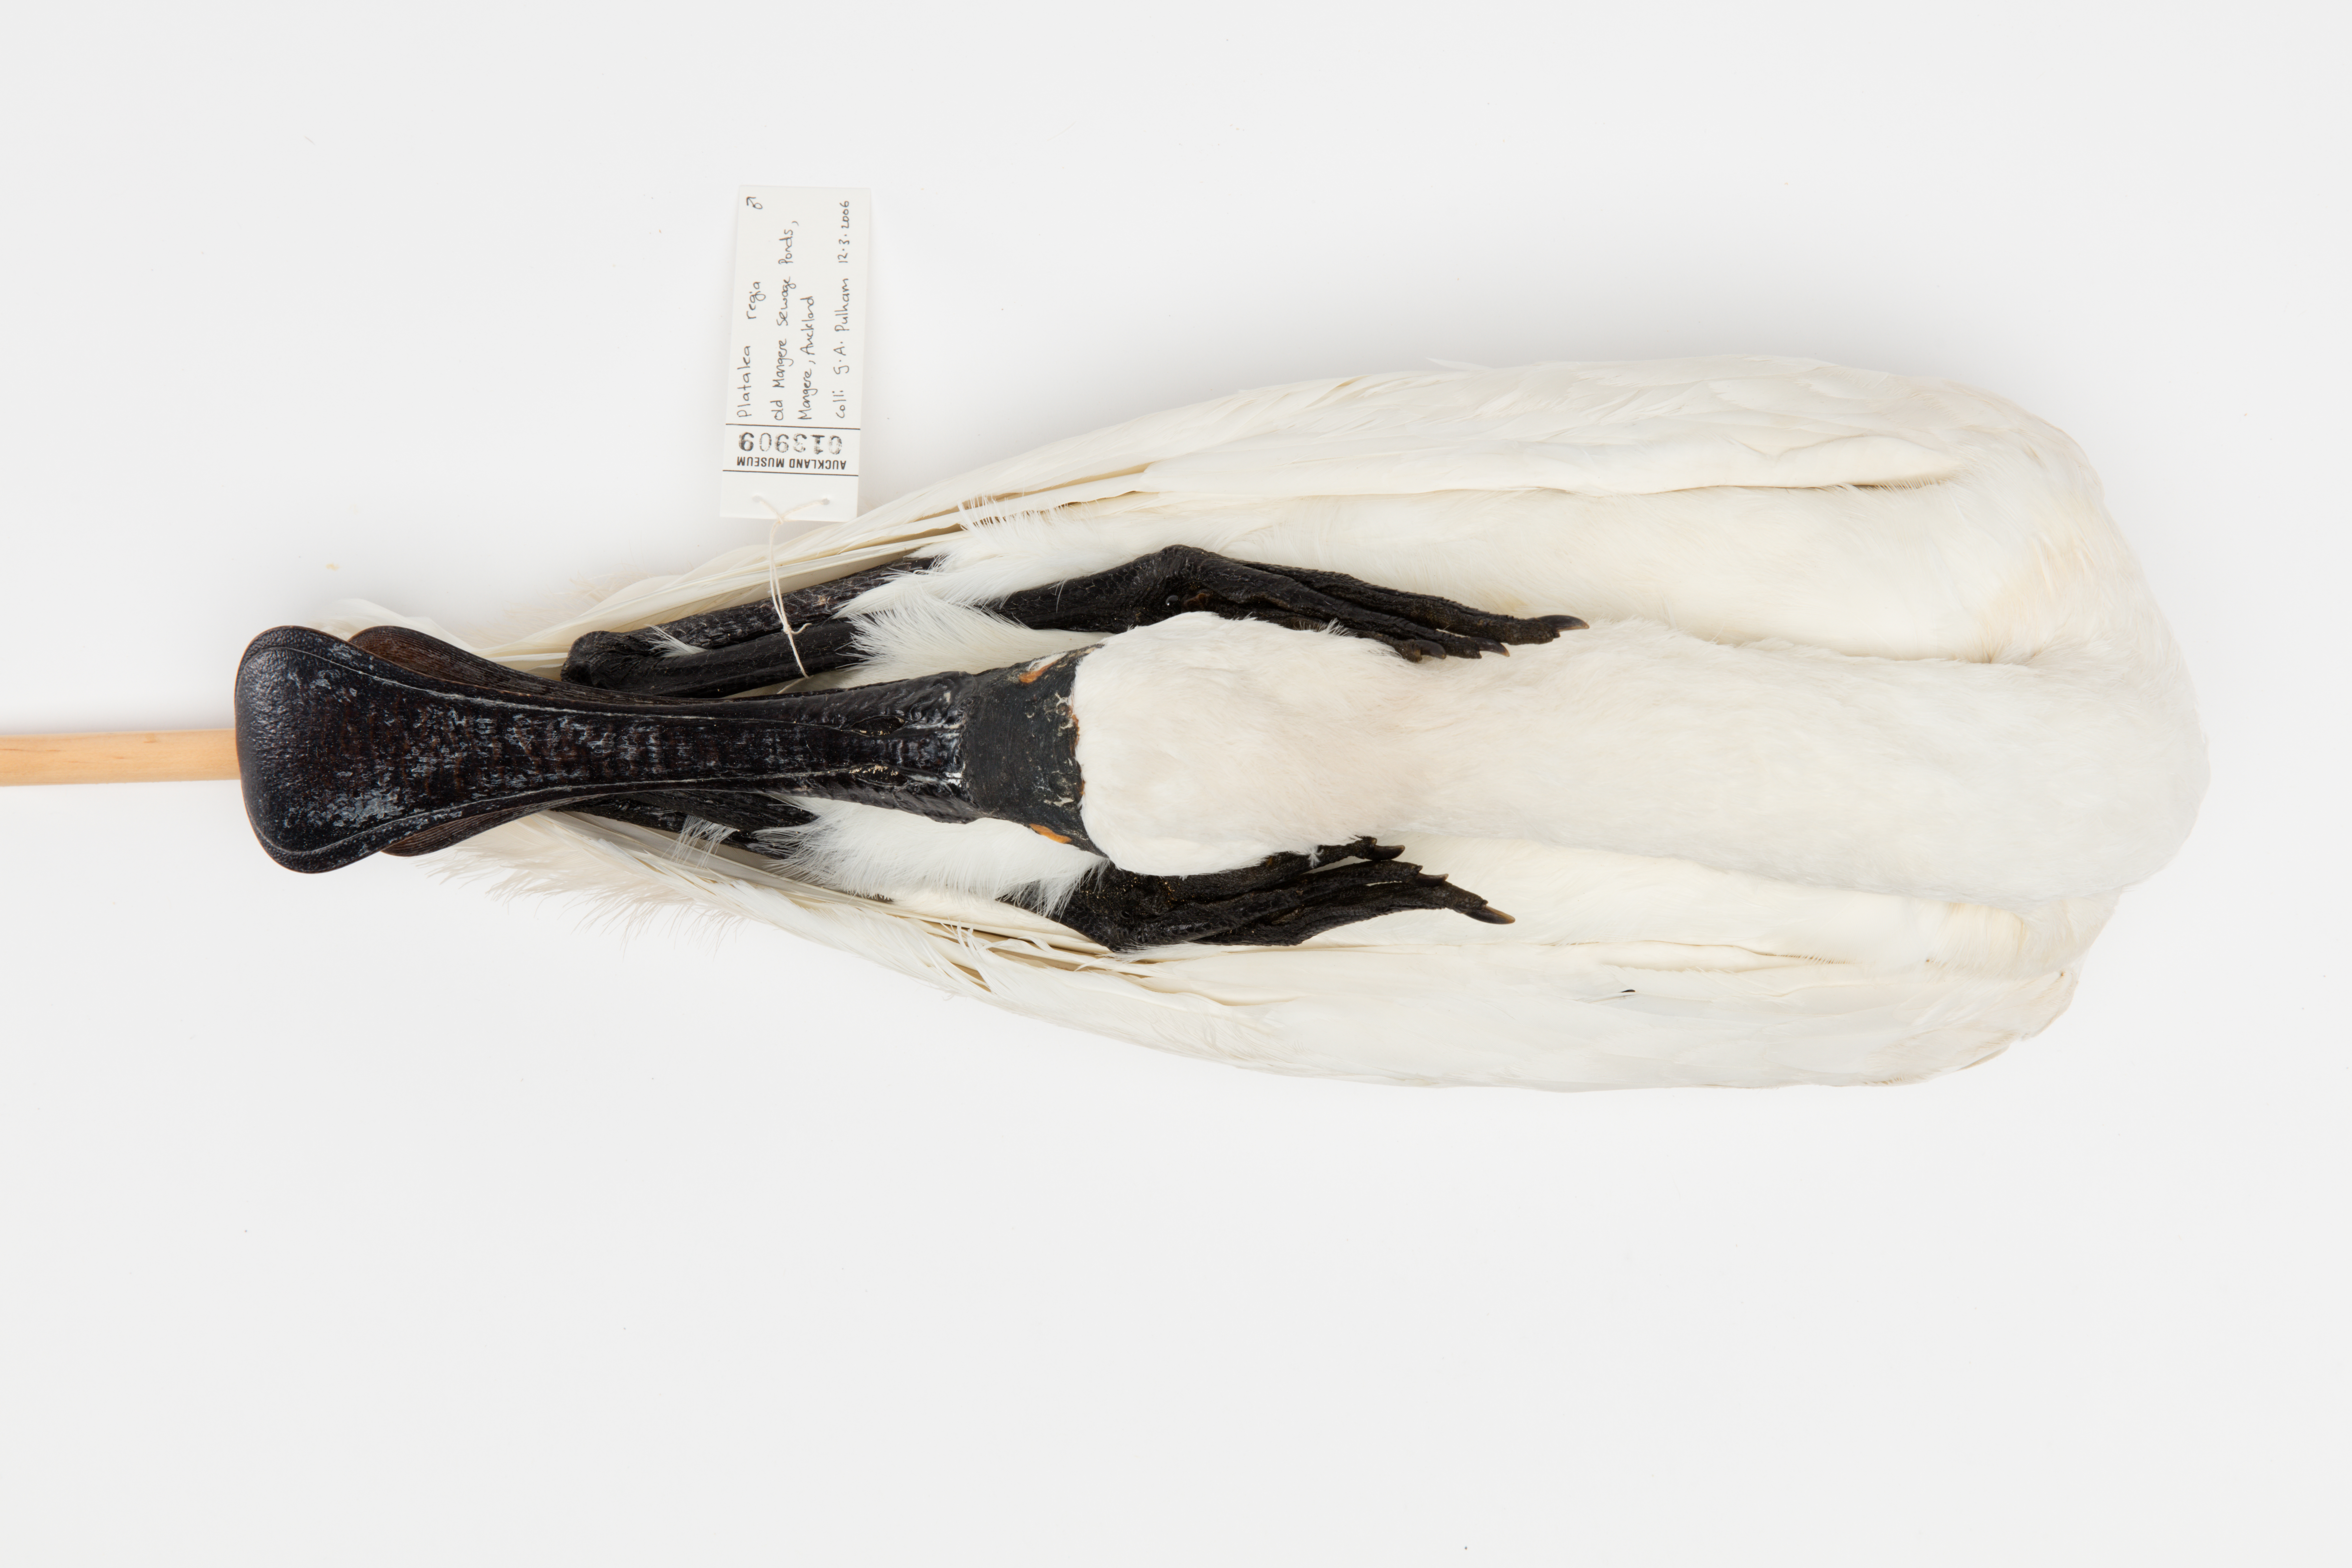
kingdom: Animalia
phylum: Chordata
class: Aves
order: Pelecaniformes
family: Threskiornithidae
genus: Platalea
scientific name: Platalea regia
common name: Royal spoonbill
